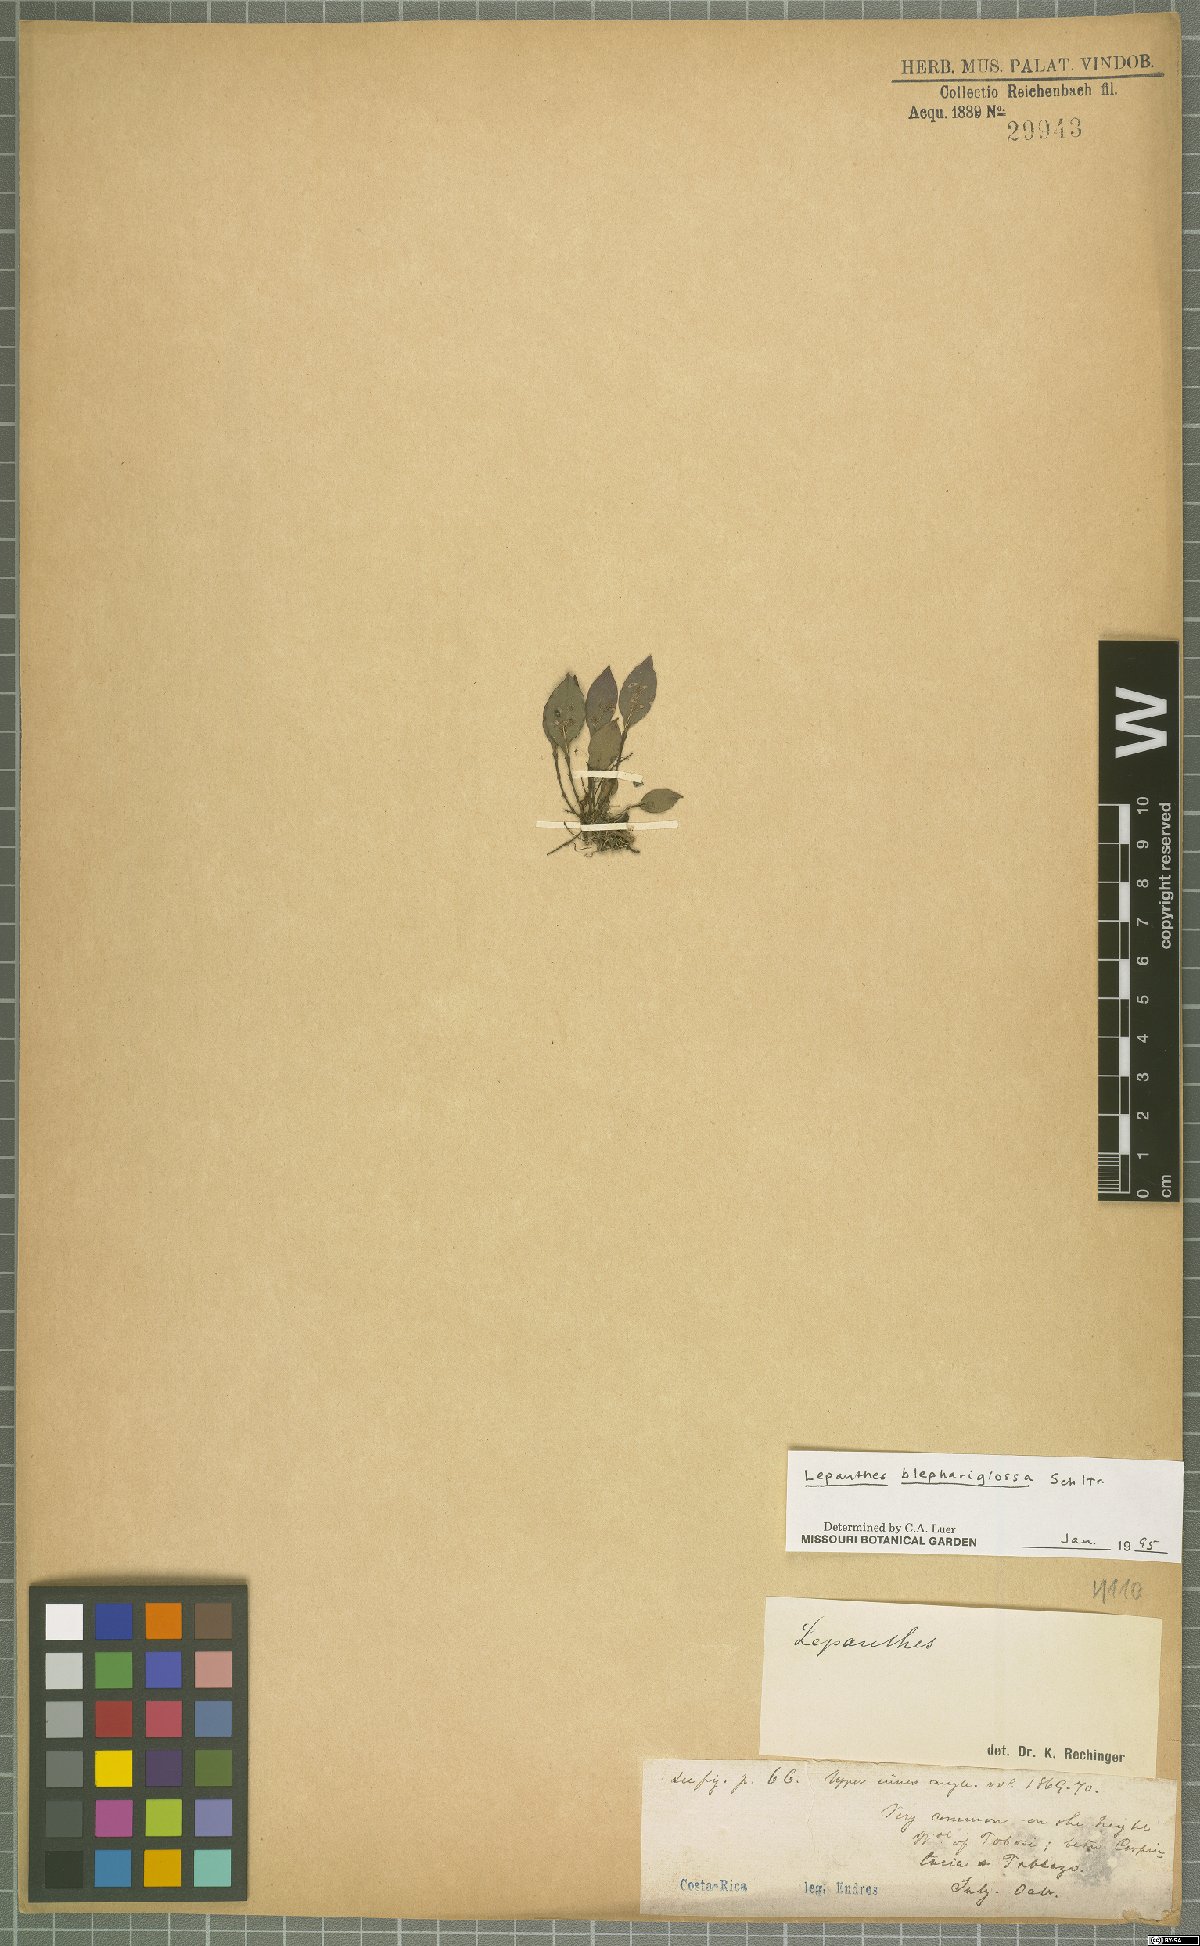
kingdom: Plantae
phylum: Tracheophyta
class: Liliopsida
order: Asparagales
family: Orchidaceae
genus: Lepanthes
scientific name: Lepanthes blephariglossa
